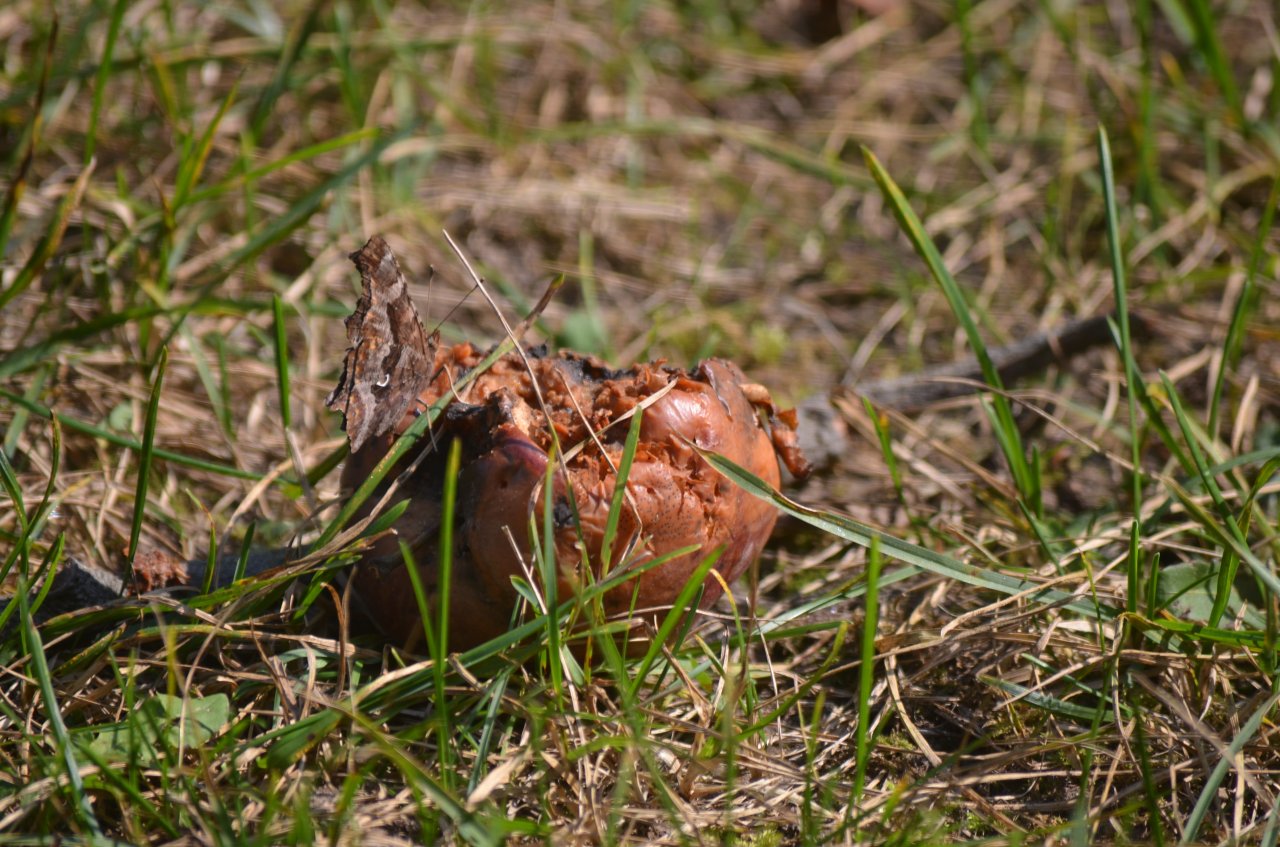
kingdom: Animalia
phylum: Arthropoda
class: Insecta
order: Lepidoptera
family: Nymphalidae
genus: Polygonia
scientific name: Polygonia comma
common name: Eastern Comma
